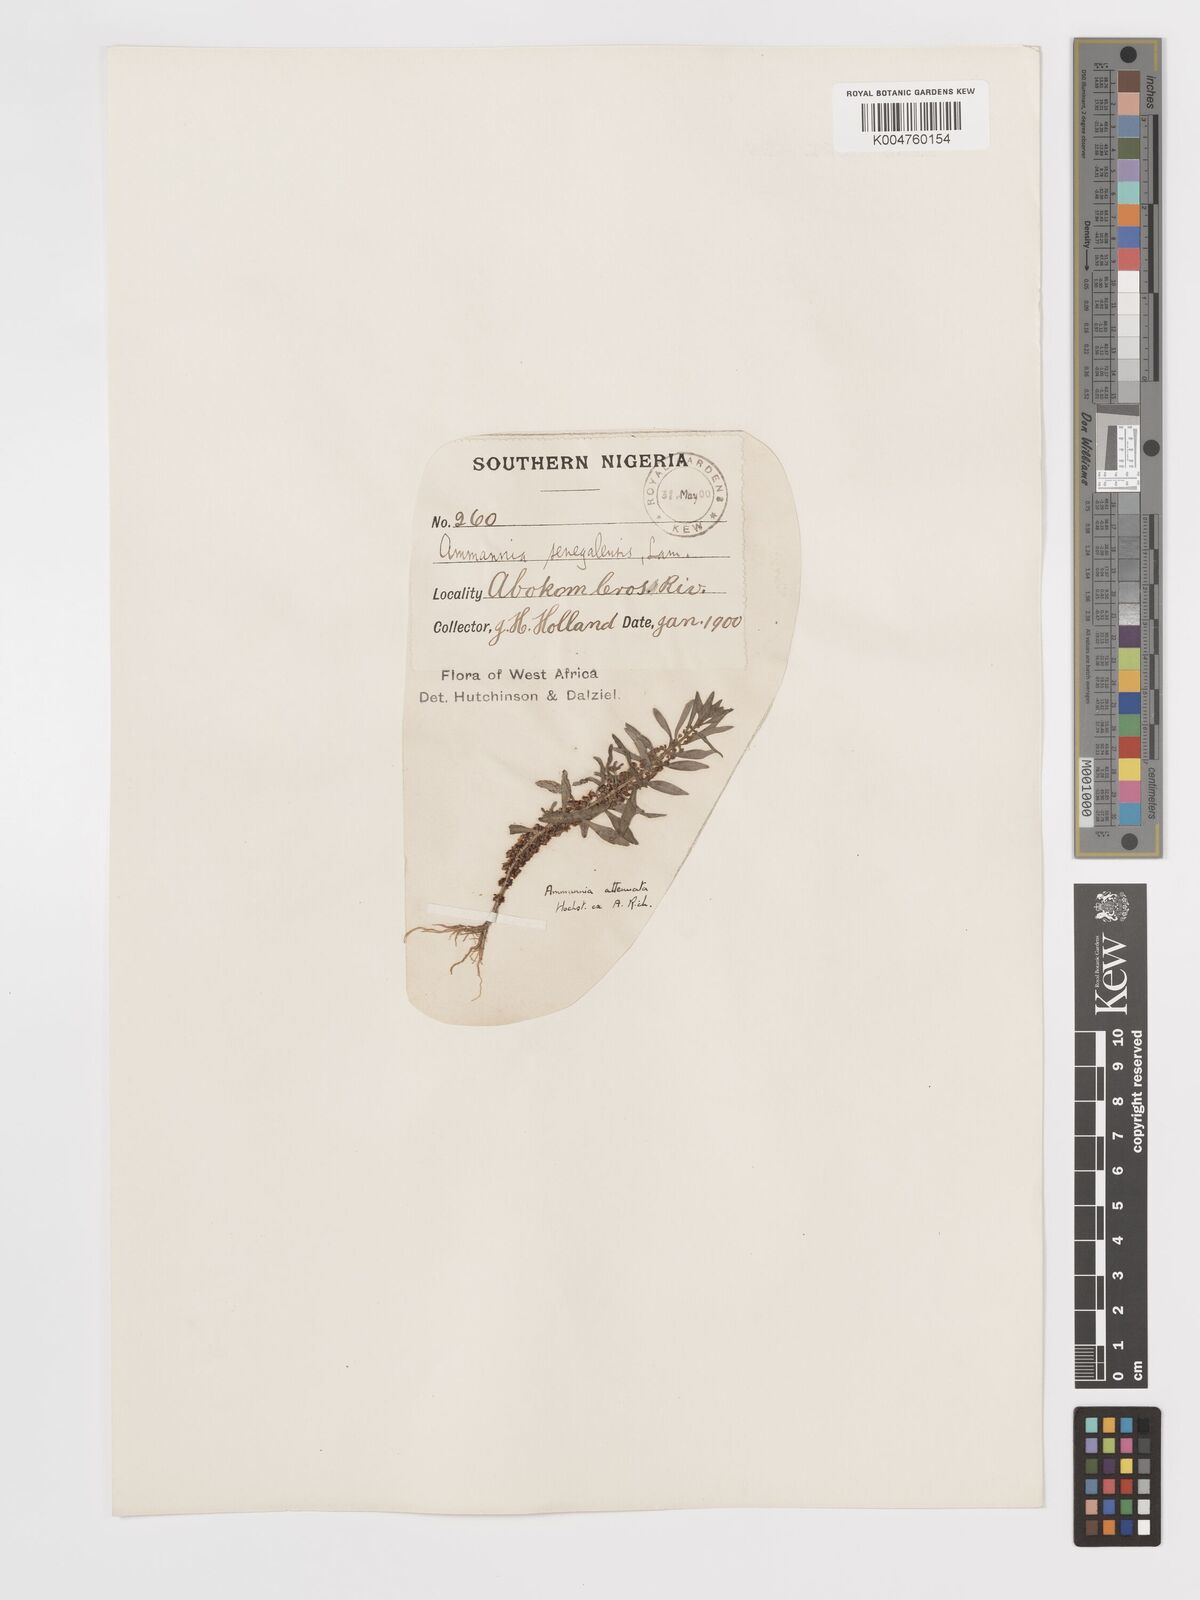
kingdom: Plantae
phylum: Tracheophyta
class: Magnoliopsida
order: Myrtales
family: Lythraceae
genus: Ammannia
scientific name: Ammannia
